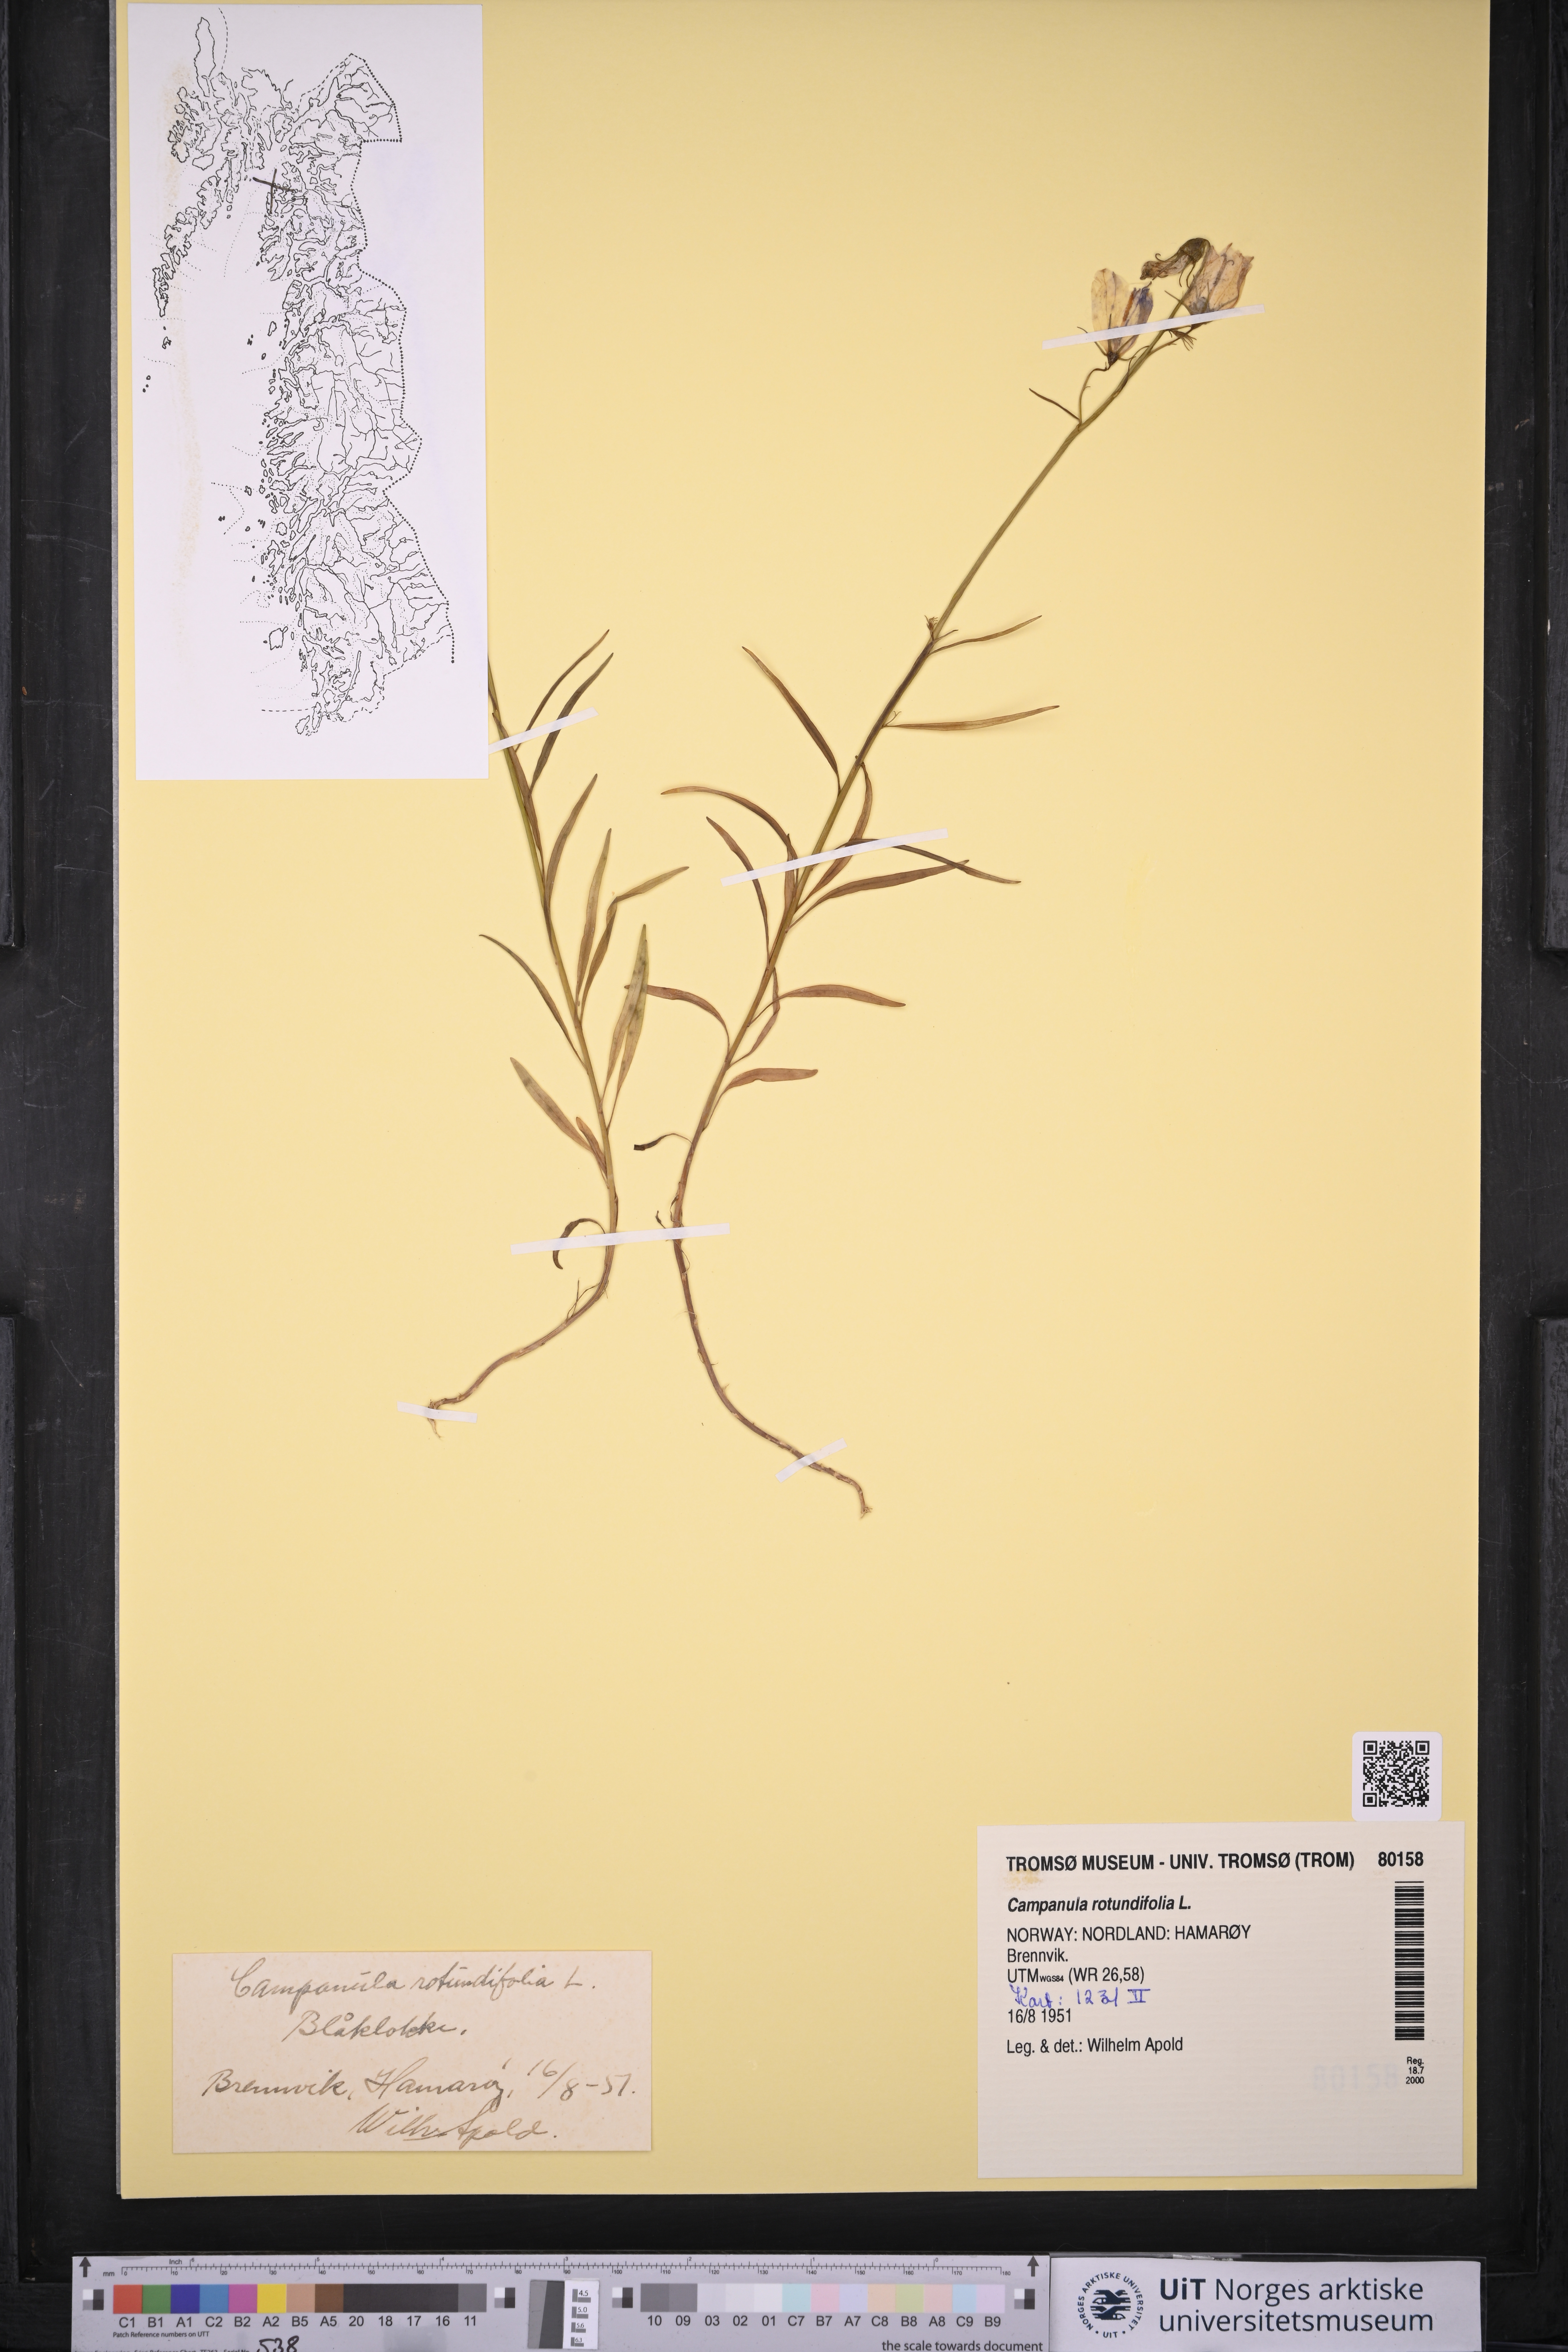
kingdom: Plantae
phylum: Tracheophyta
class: Magnoliopsida
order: Asterales
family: Campanulaceae
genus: Campanula
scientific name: Campanula rotundifolia
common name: Harebell
